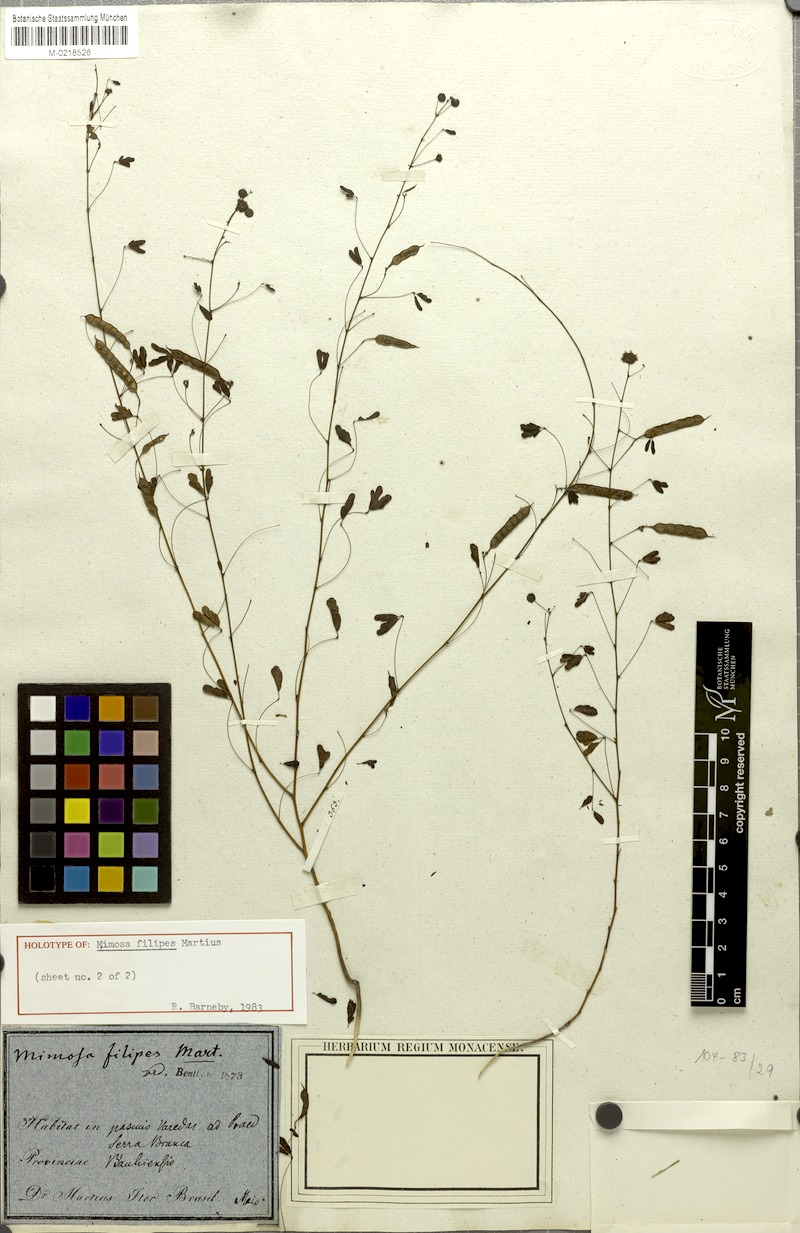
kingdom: Plantae
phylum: Tracheophyta
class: Magnoliopsida
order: Fabales
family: Fabaceae
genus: Mimosa
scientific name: Mimosa filipes
